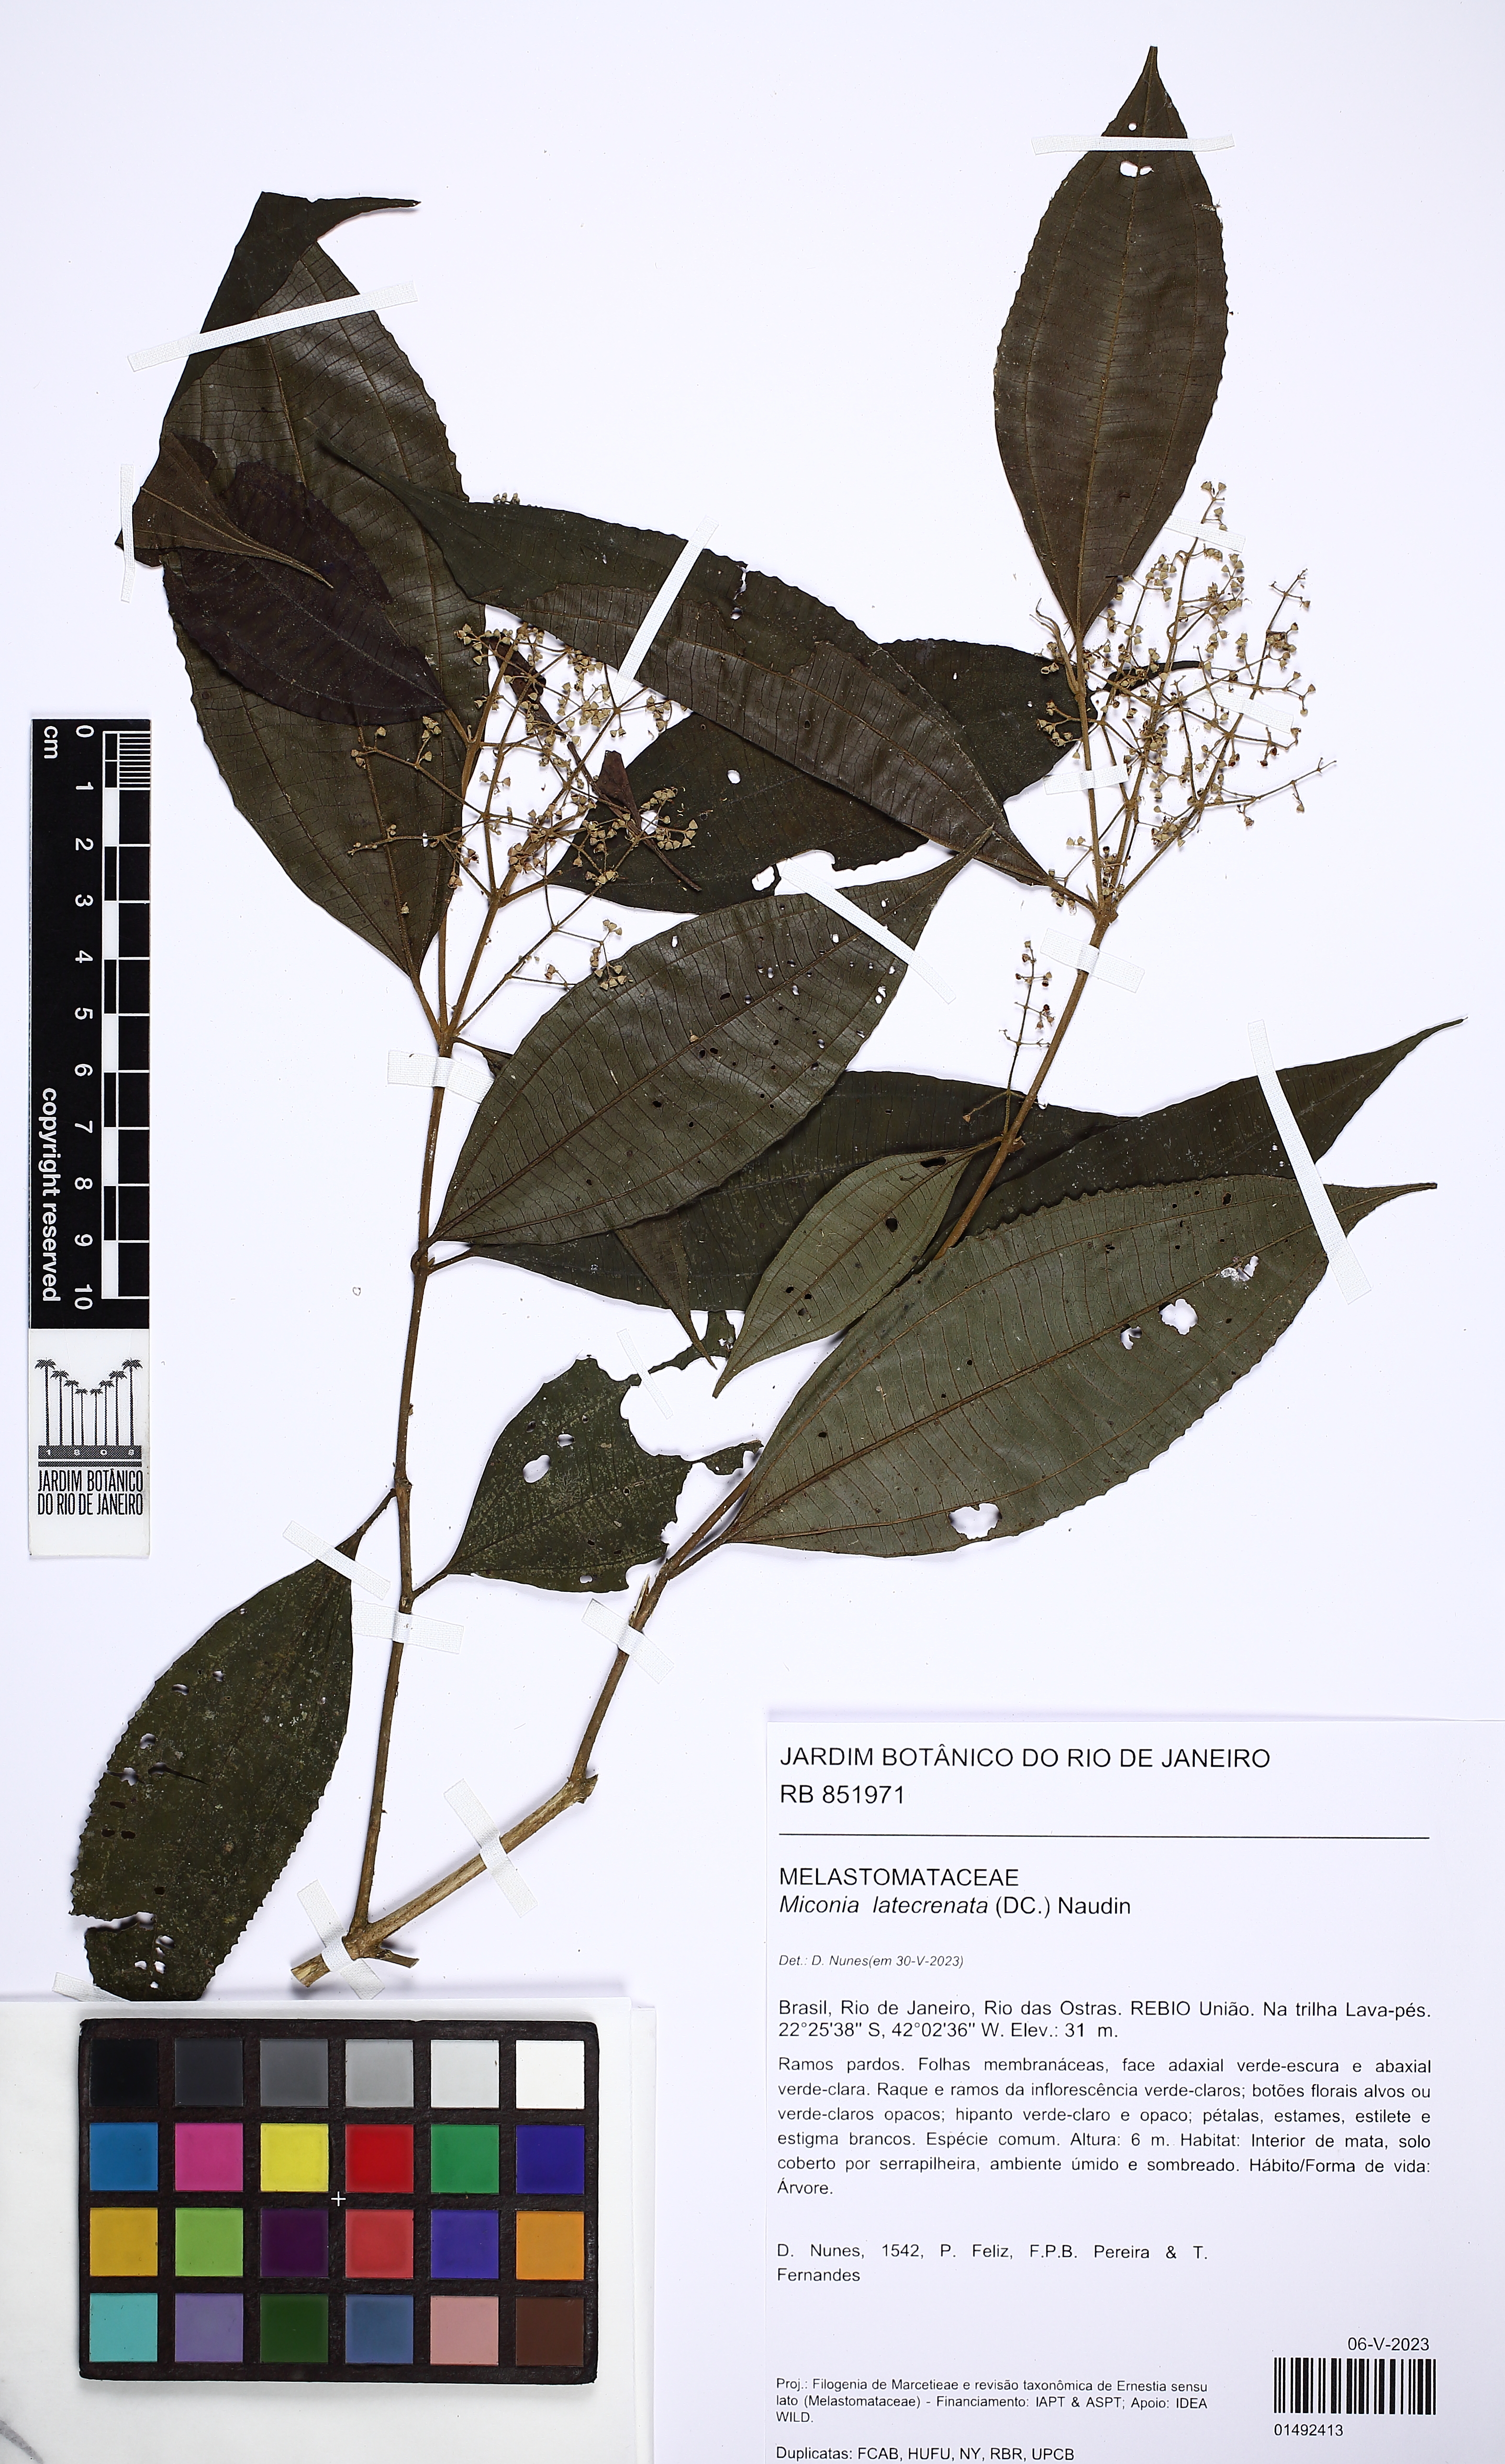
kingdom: Plantae
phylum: Tracheophyta
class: Magnoliopsida
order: Myrtales
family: Melastomataceae
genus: Miconia
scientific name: Miconia latecrenata
